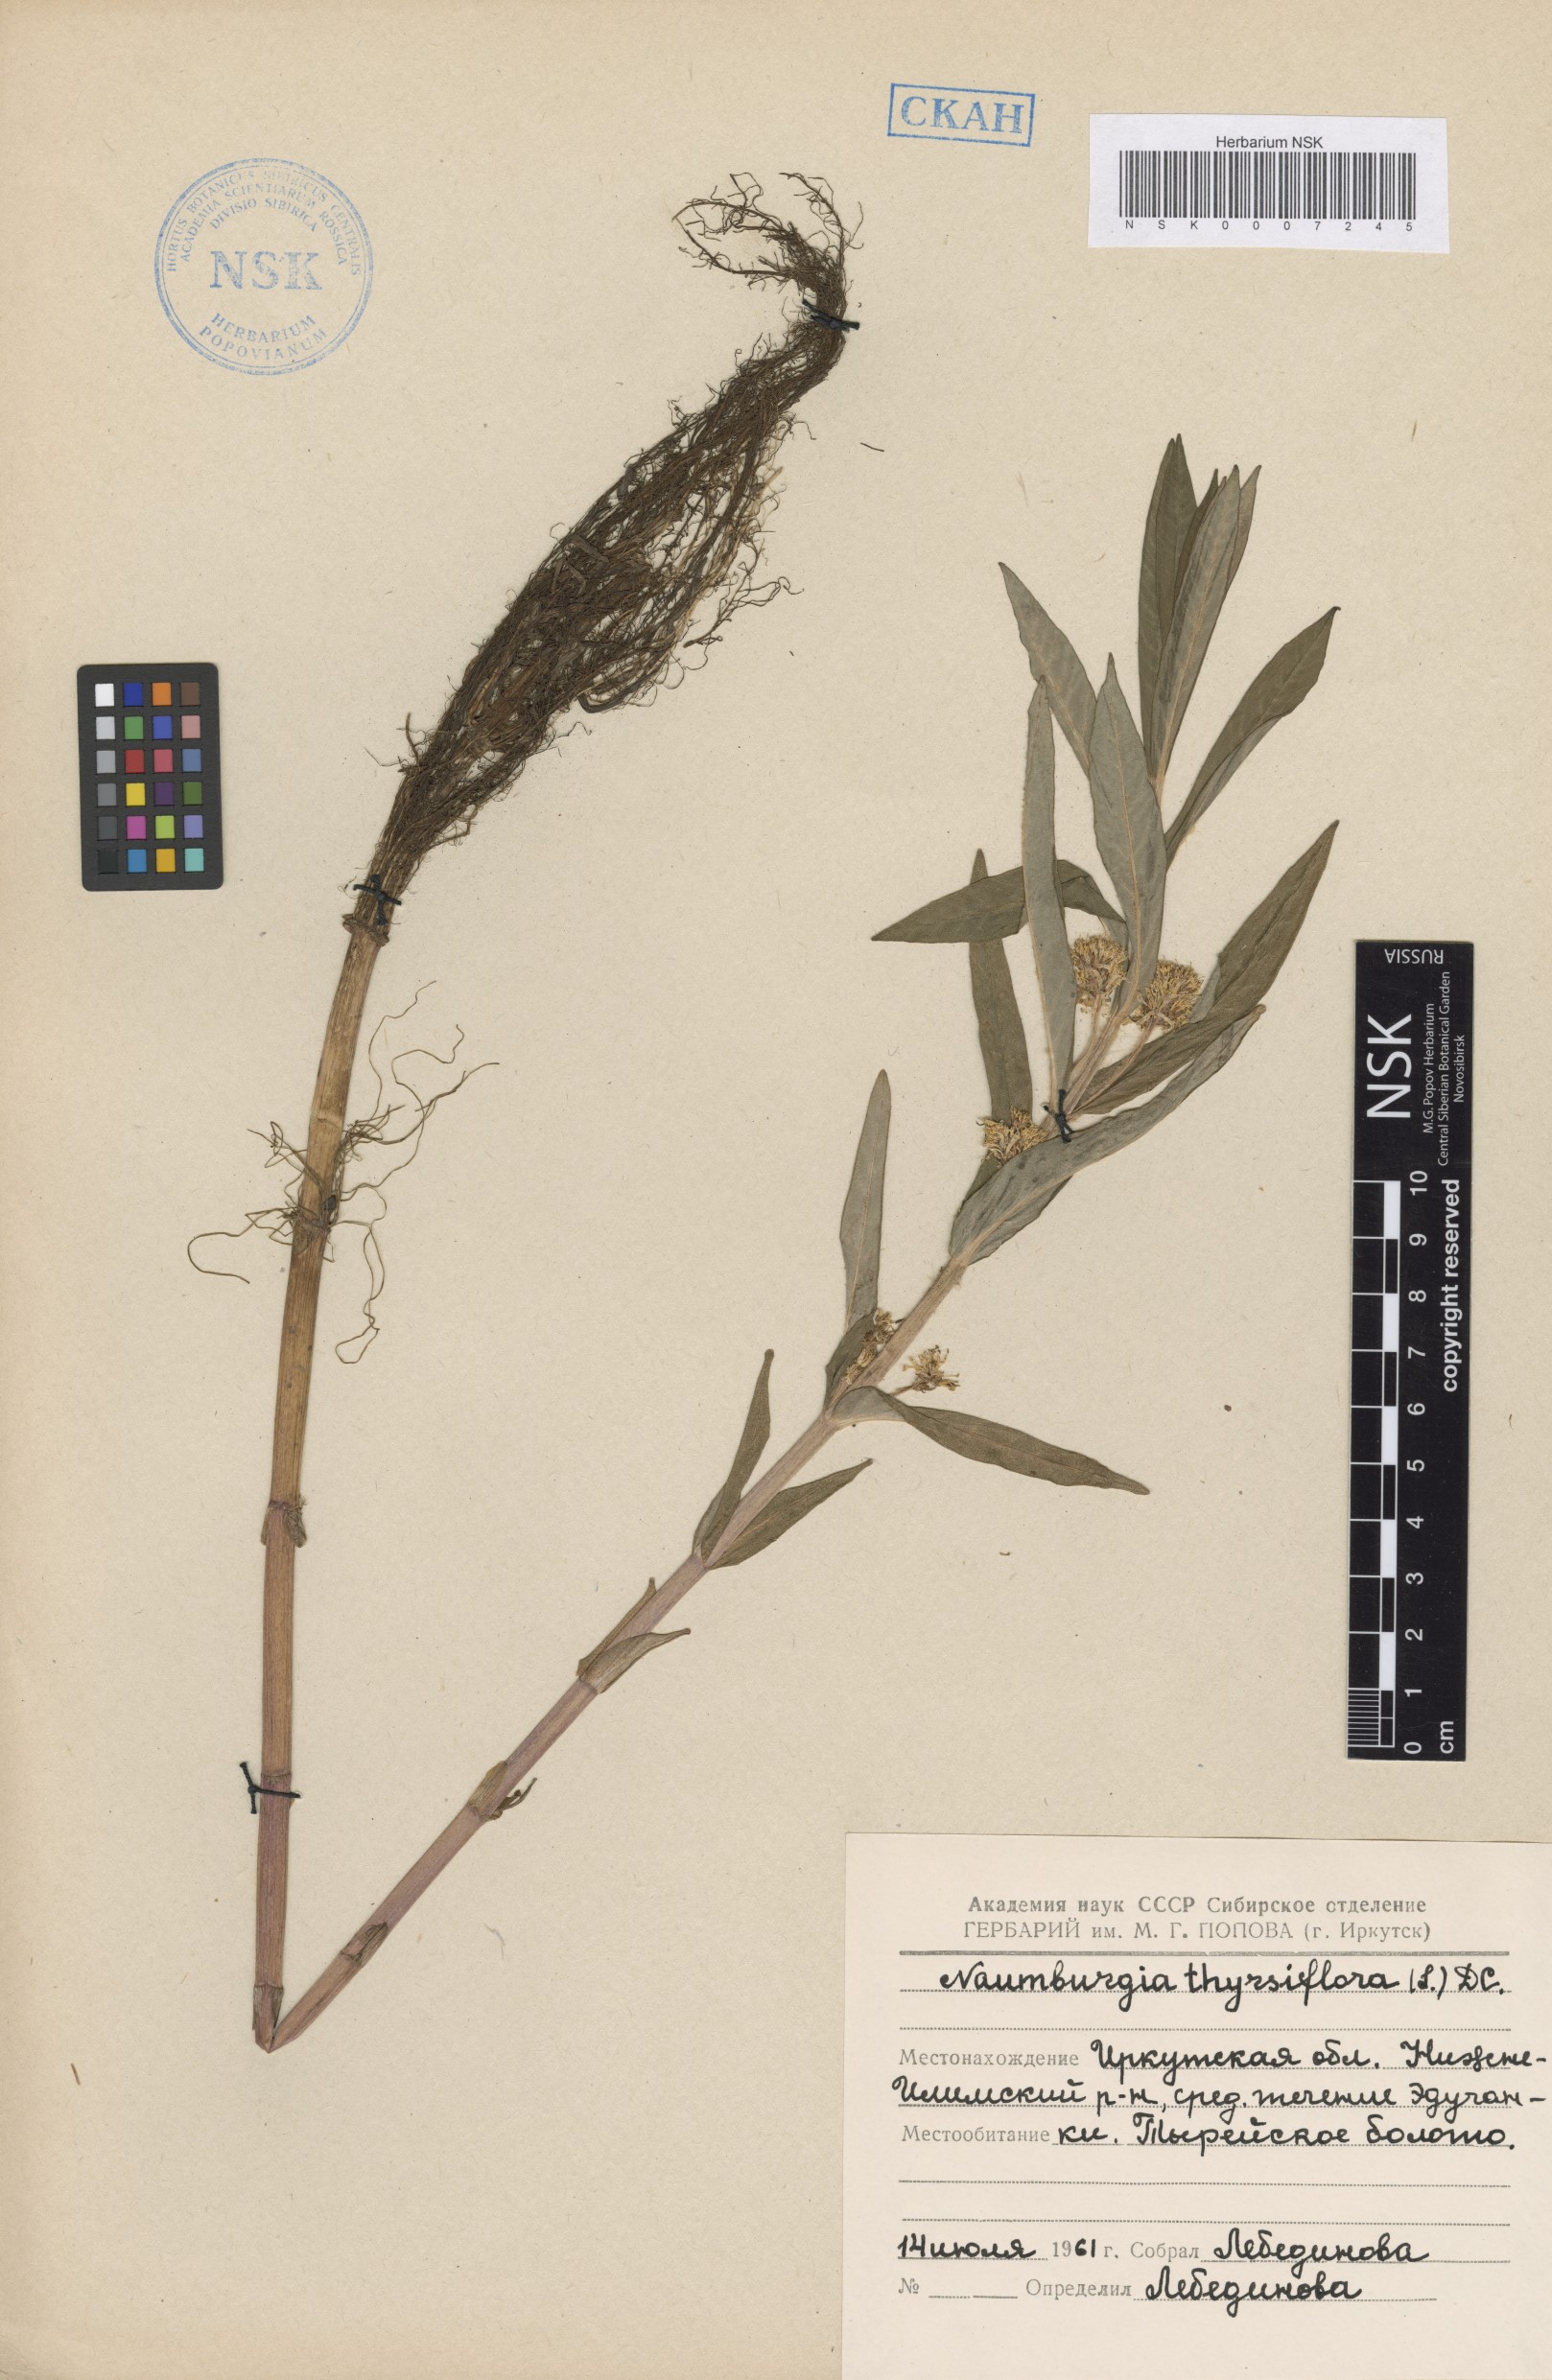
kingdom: Plantae
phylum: Tracheophyta
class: Magnoliopsida
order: Ericales
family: Primulaceae
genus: Lysimachia
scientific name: Lysimachia thyrsiflora
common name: Tufted loosestrife
